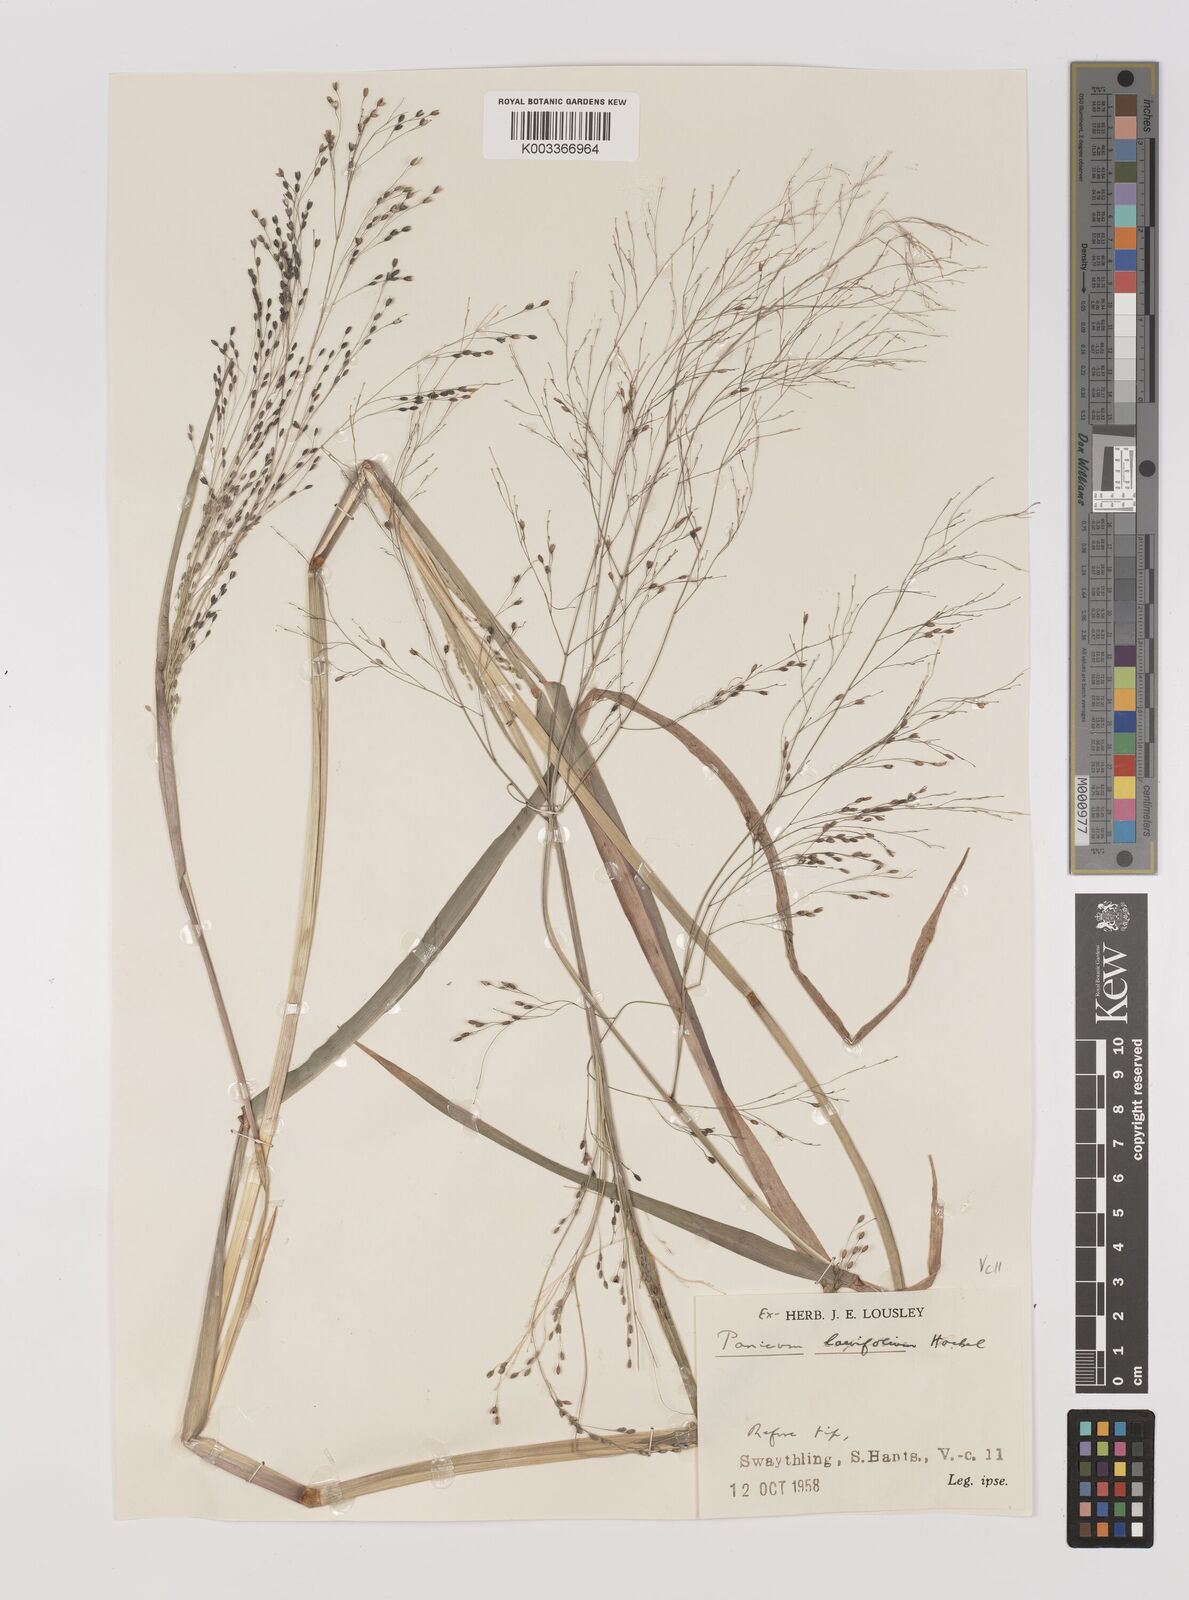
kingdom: Plantae
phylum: Tracheophyta
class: Liliopsida
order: Poales
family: Poaceae
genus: Panicum
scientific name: Panicum schinzii
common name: Sweet grass
